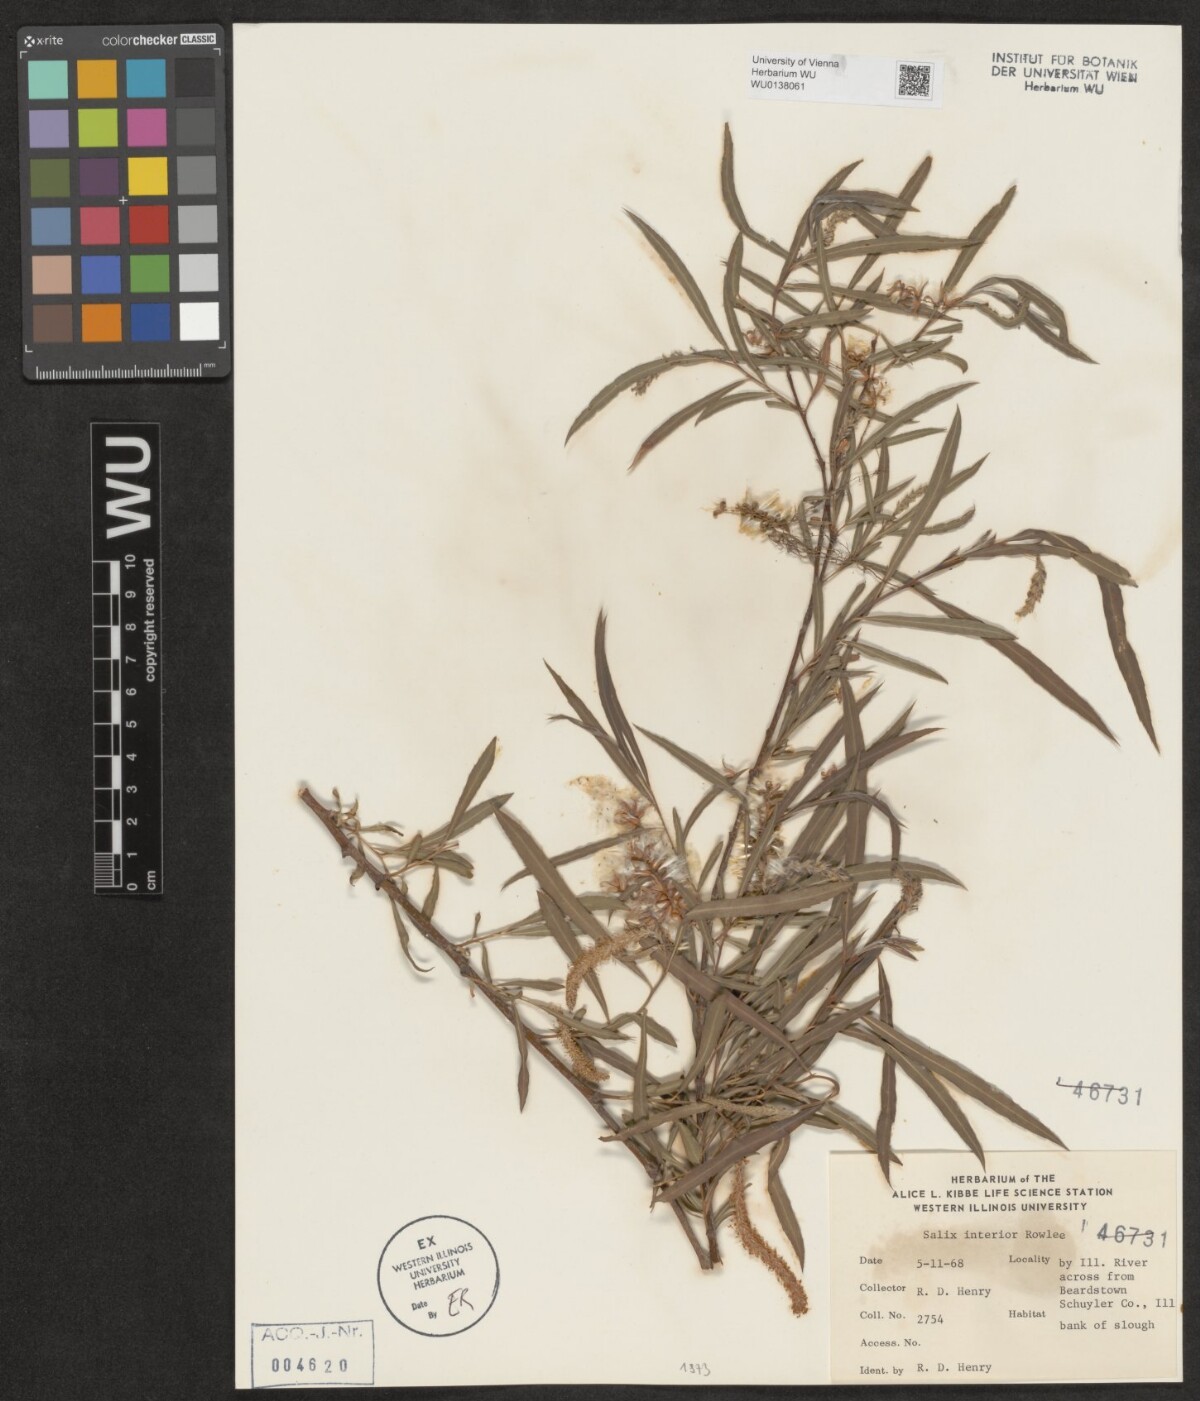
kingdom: Plantae
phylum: Tracheophyta
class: Magnoliopsida
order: Malpighiales
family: Salicaceae
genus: Salix
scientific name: Salix interior
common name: Sandbar willow
